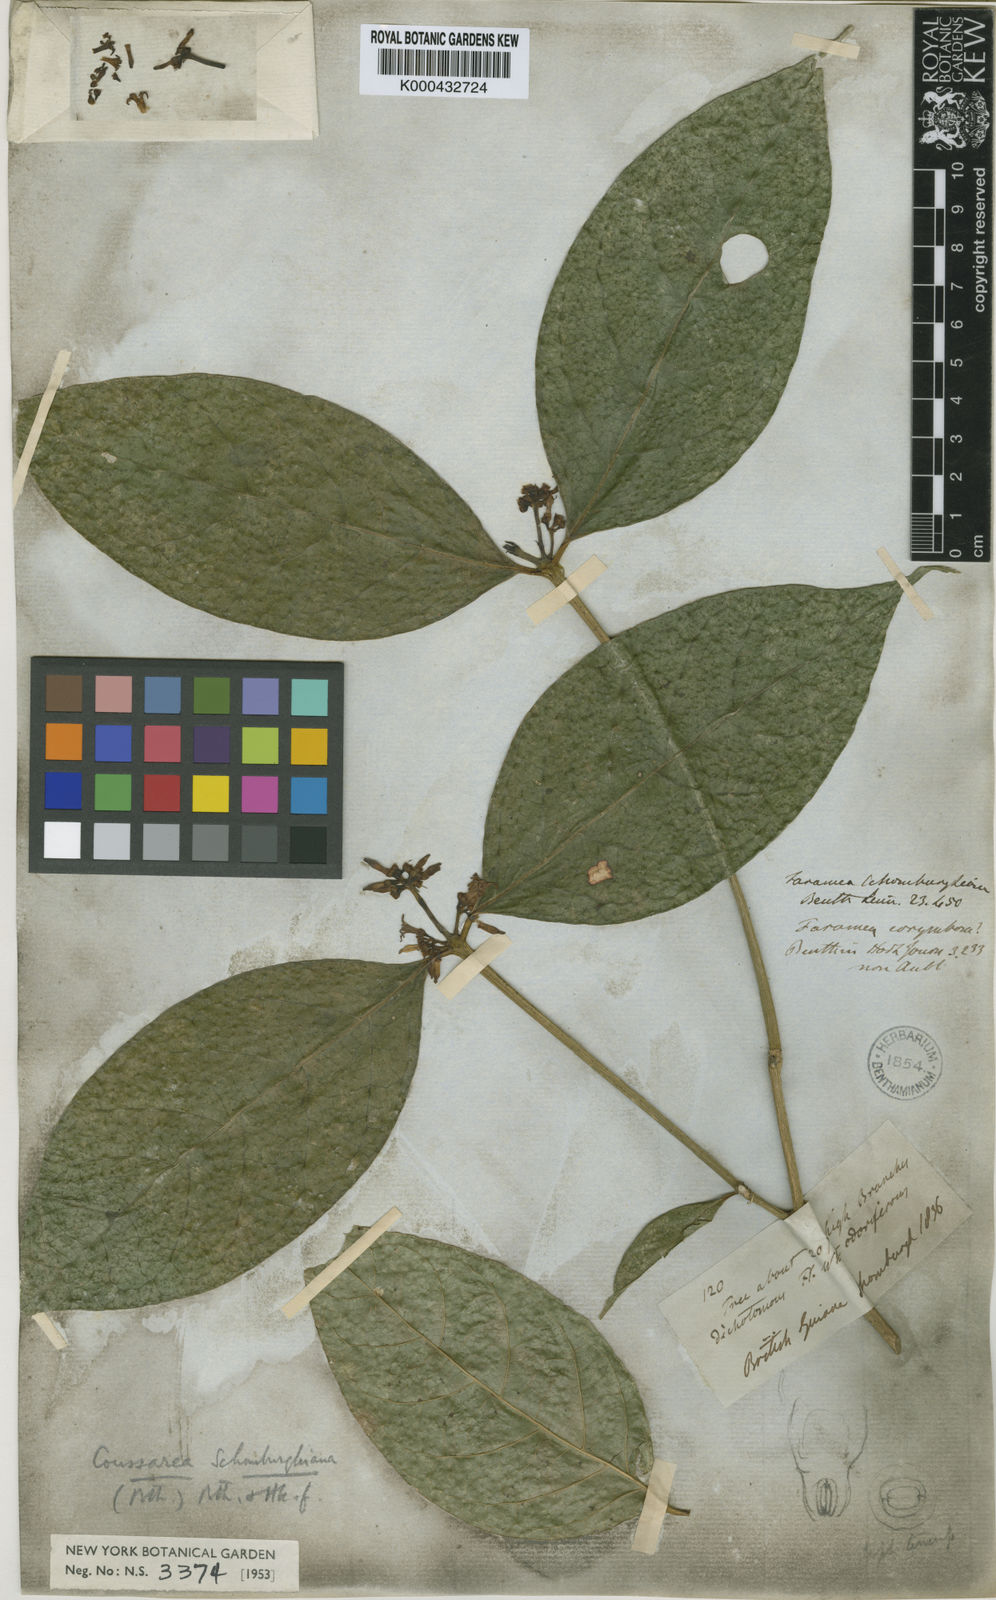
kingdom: Plantae
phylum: Tracheophyta
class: Magnoliopsida
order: Gentianales
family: Rubiaceae
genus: Coussarea
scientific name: Coussarea
